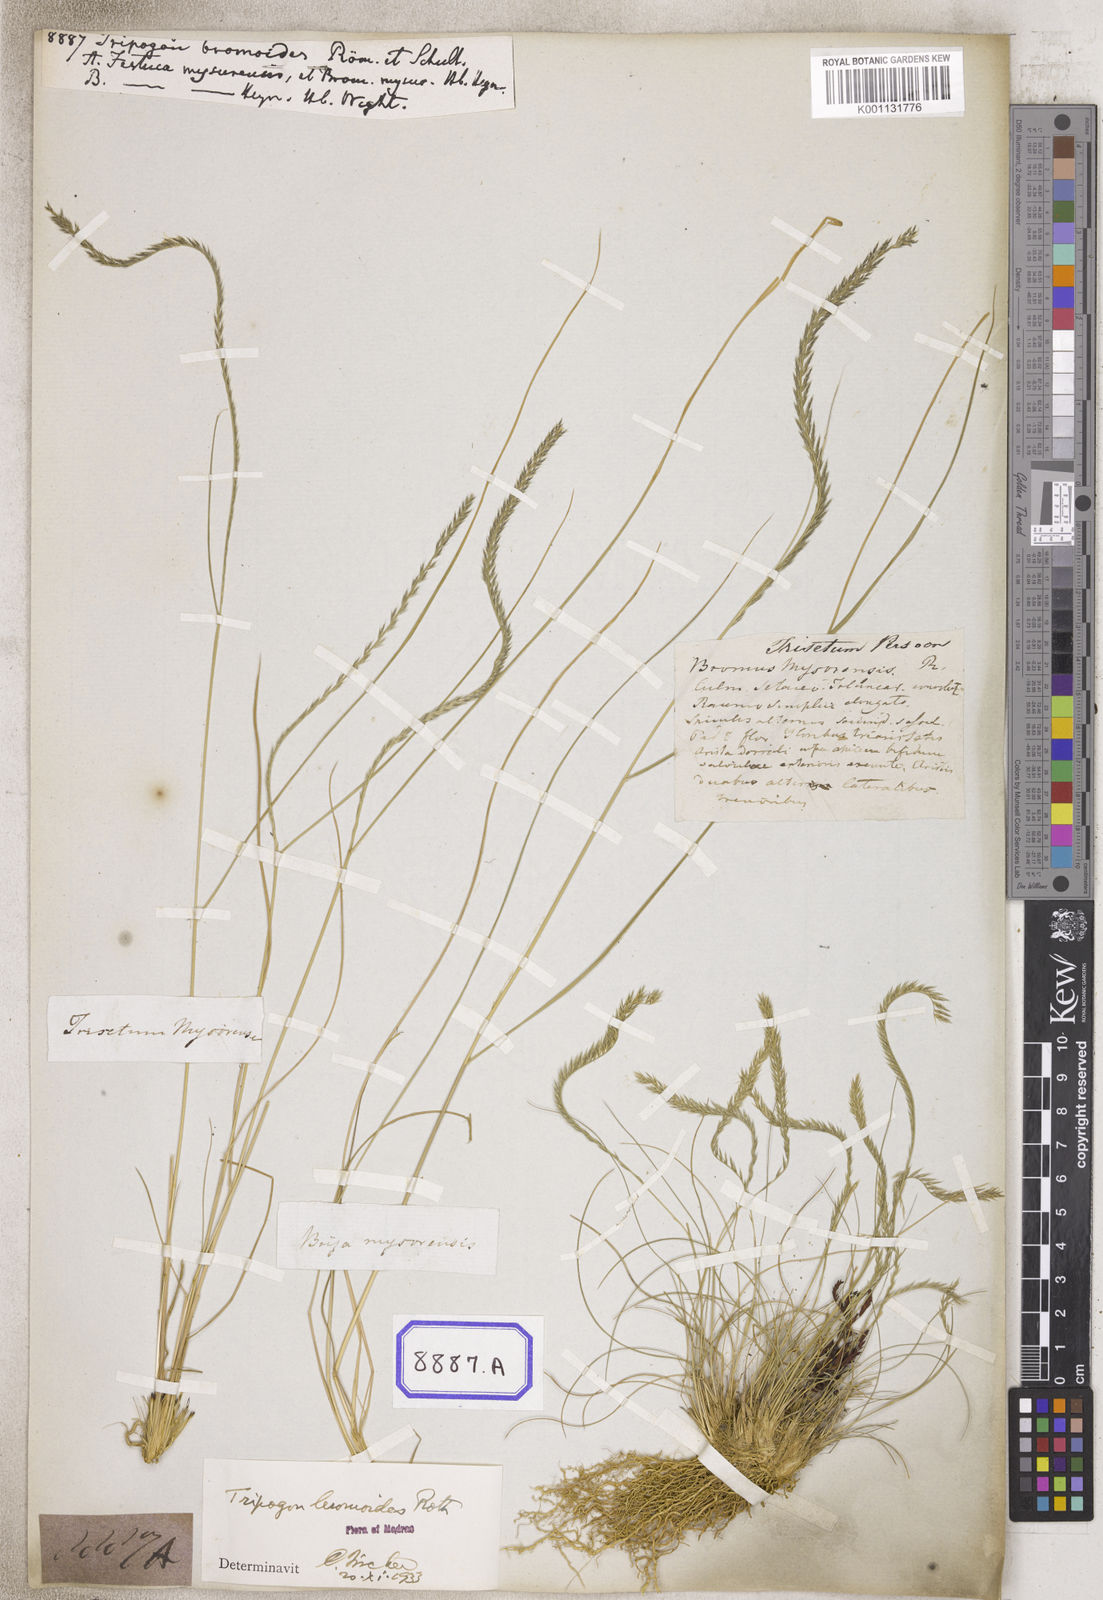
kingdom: Plantae
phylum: Tracheophyta
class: Liliopsida
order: Poales
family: Poaceae
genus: Tripogon
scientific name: Tripogon
